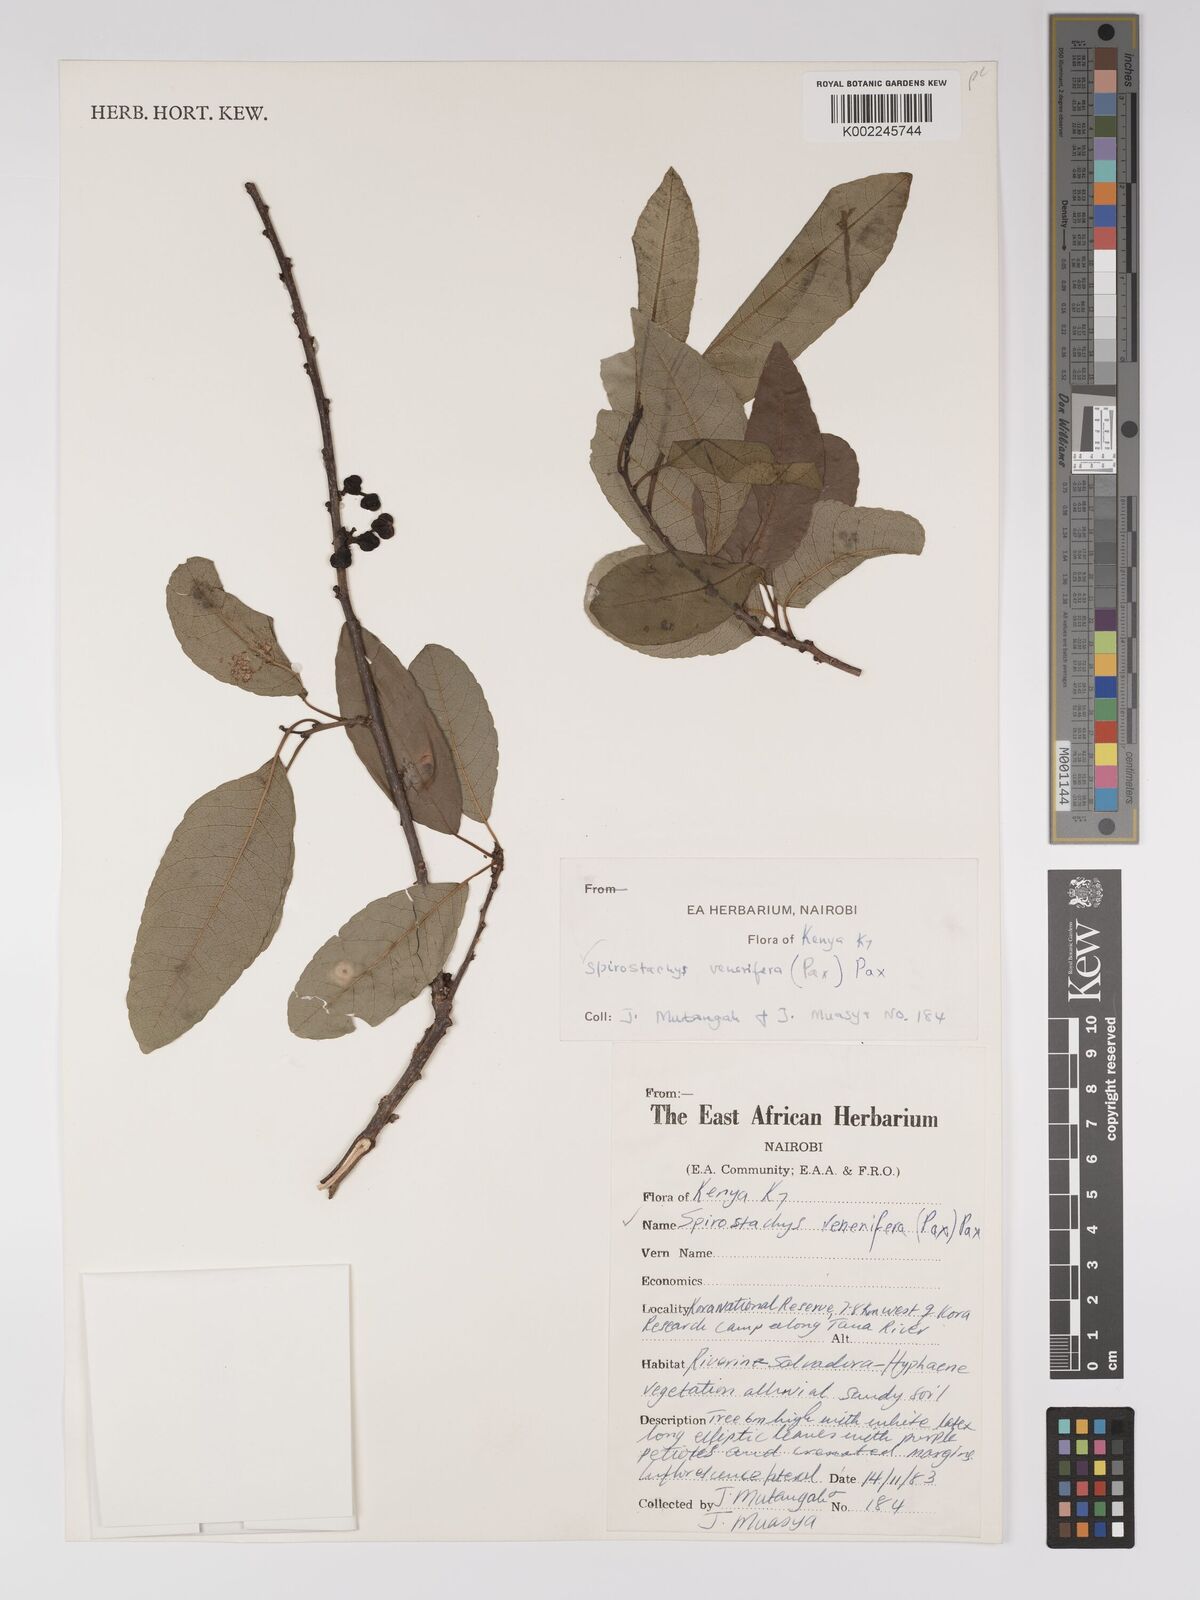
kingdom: Plantae
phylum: Tracheophyta
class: Magnoliopsida
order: Malpighiales
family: Euphorbiaceae
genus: Spirostachys
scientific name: Spirostachys venenifera
